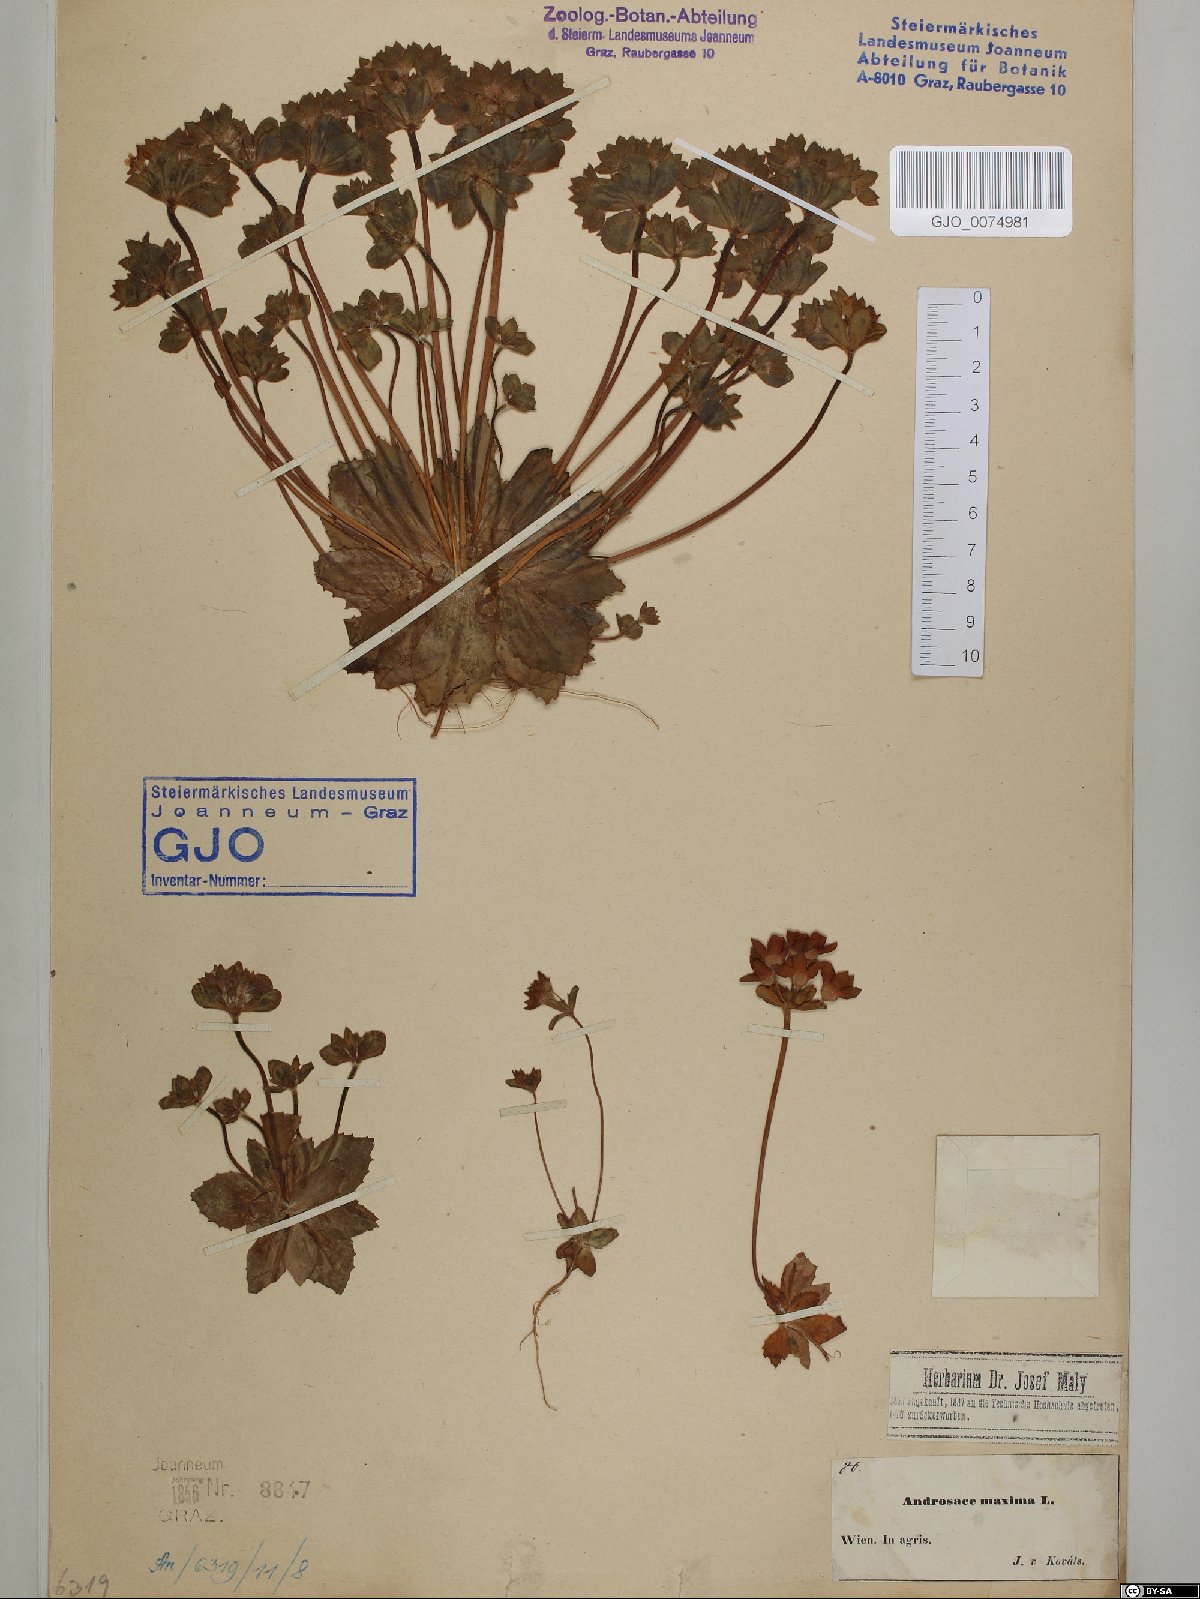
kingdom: Plantae
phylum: Tracheophyta
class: Magnoliopsida
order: Ericales
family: Primulaceae
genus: Androsace
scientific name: Androsace maxima
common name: Annual androsace
